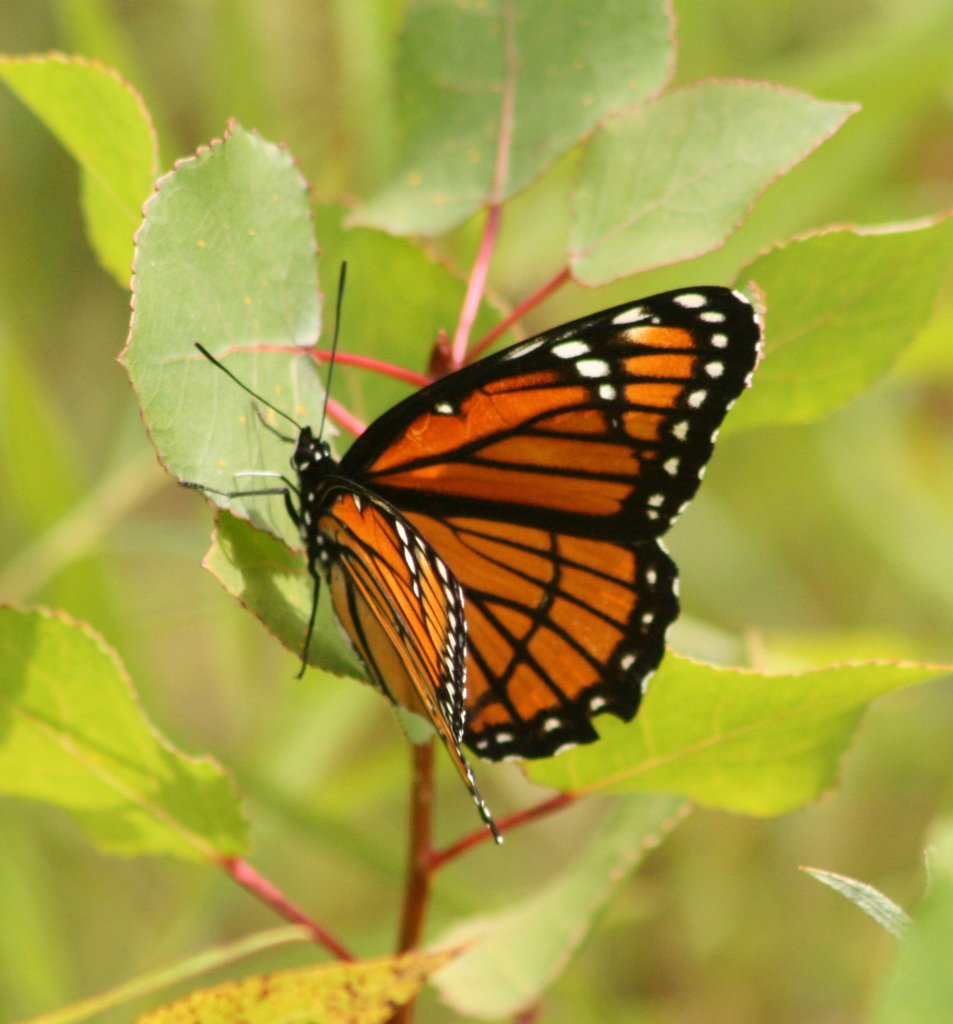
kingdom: Animalia
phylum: Arthropoda
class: Insecta
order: Lepidoptera
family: Nymphalidae
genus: Limenitis
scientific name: Limenitis archippus
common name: Viceroy
